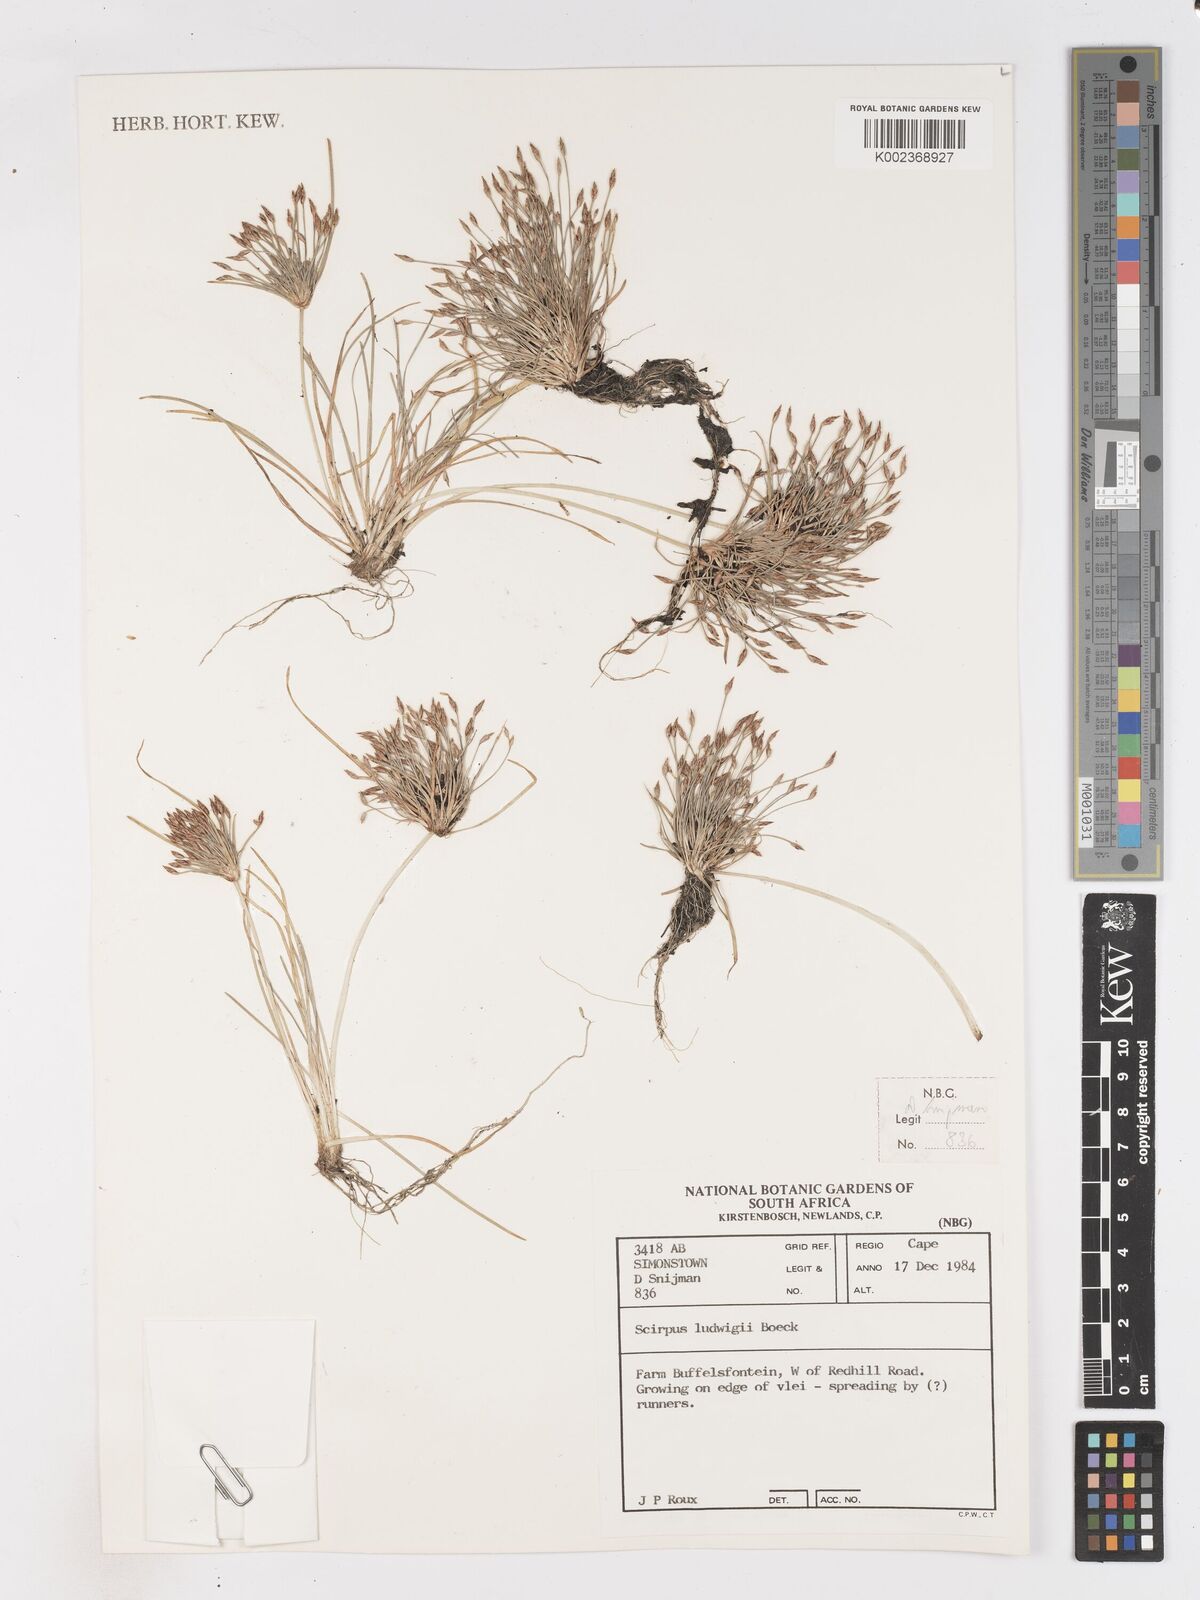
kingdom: Plantae
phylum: Tracheophyta
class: Liliopsida
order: Poales
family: Cyperaceae
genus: Isolepis
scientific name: Isolepis ludwigii
